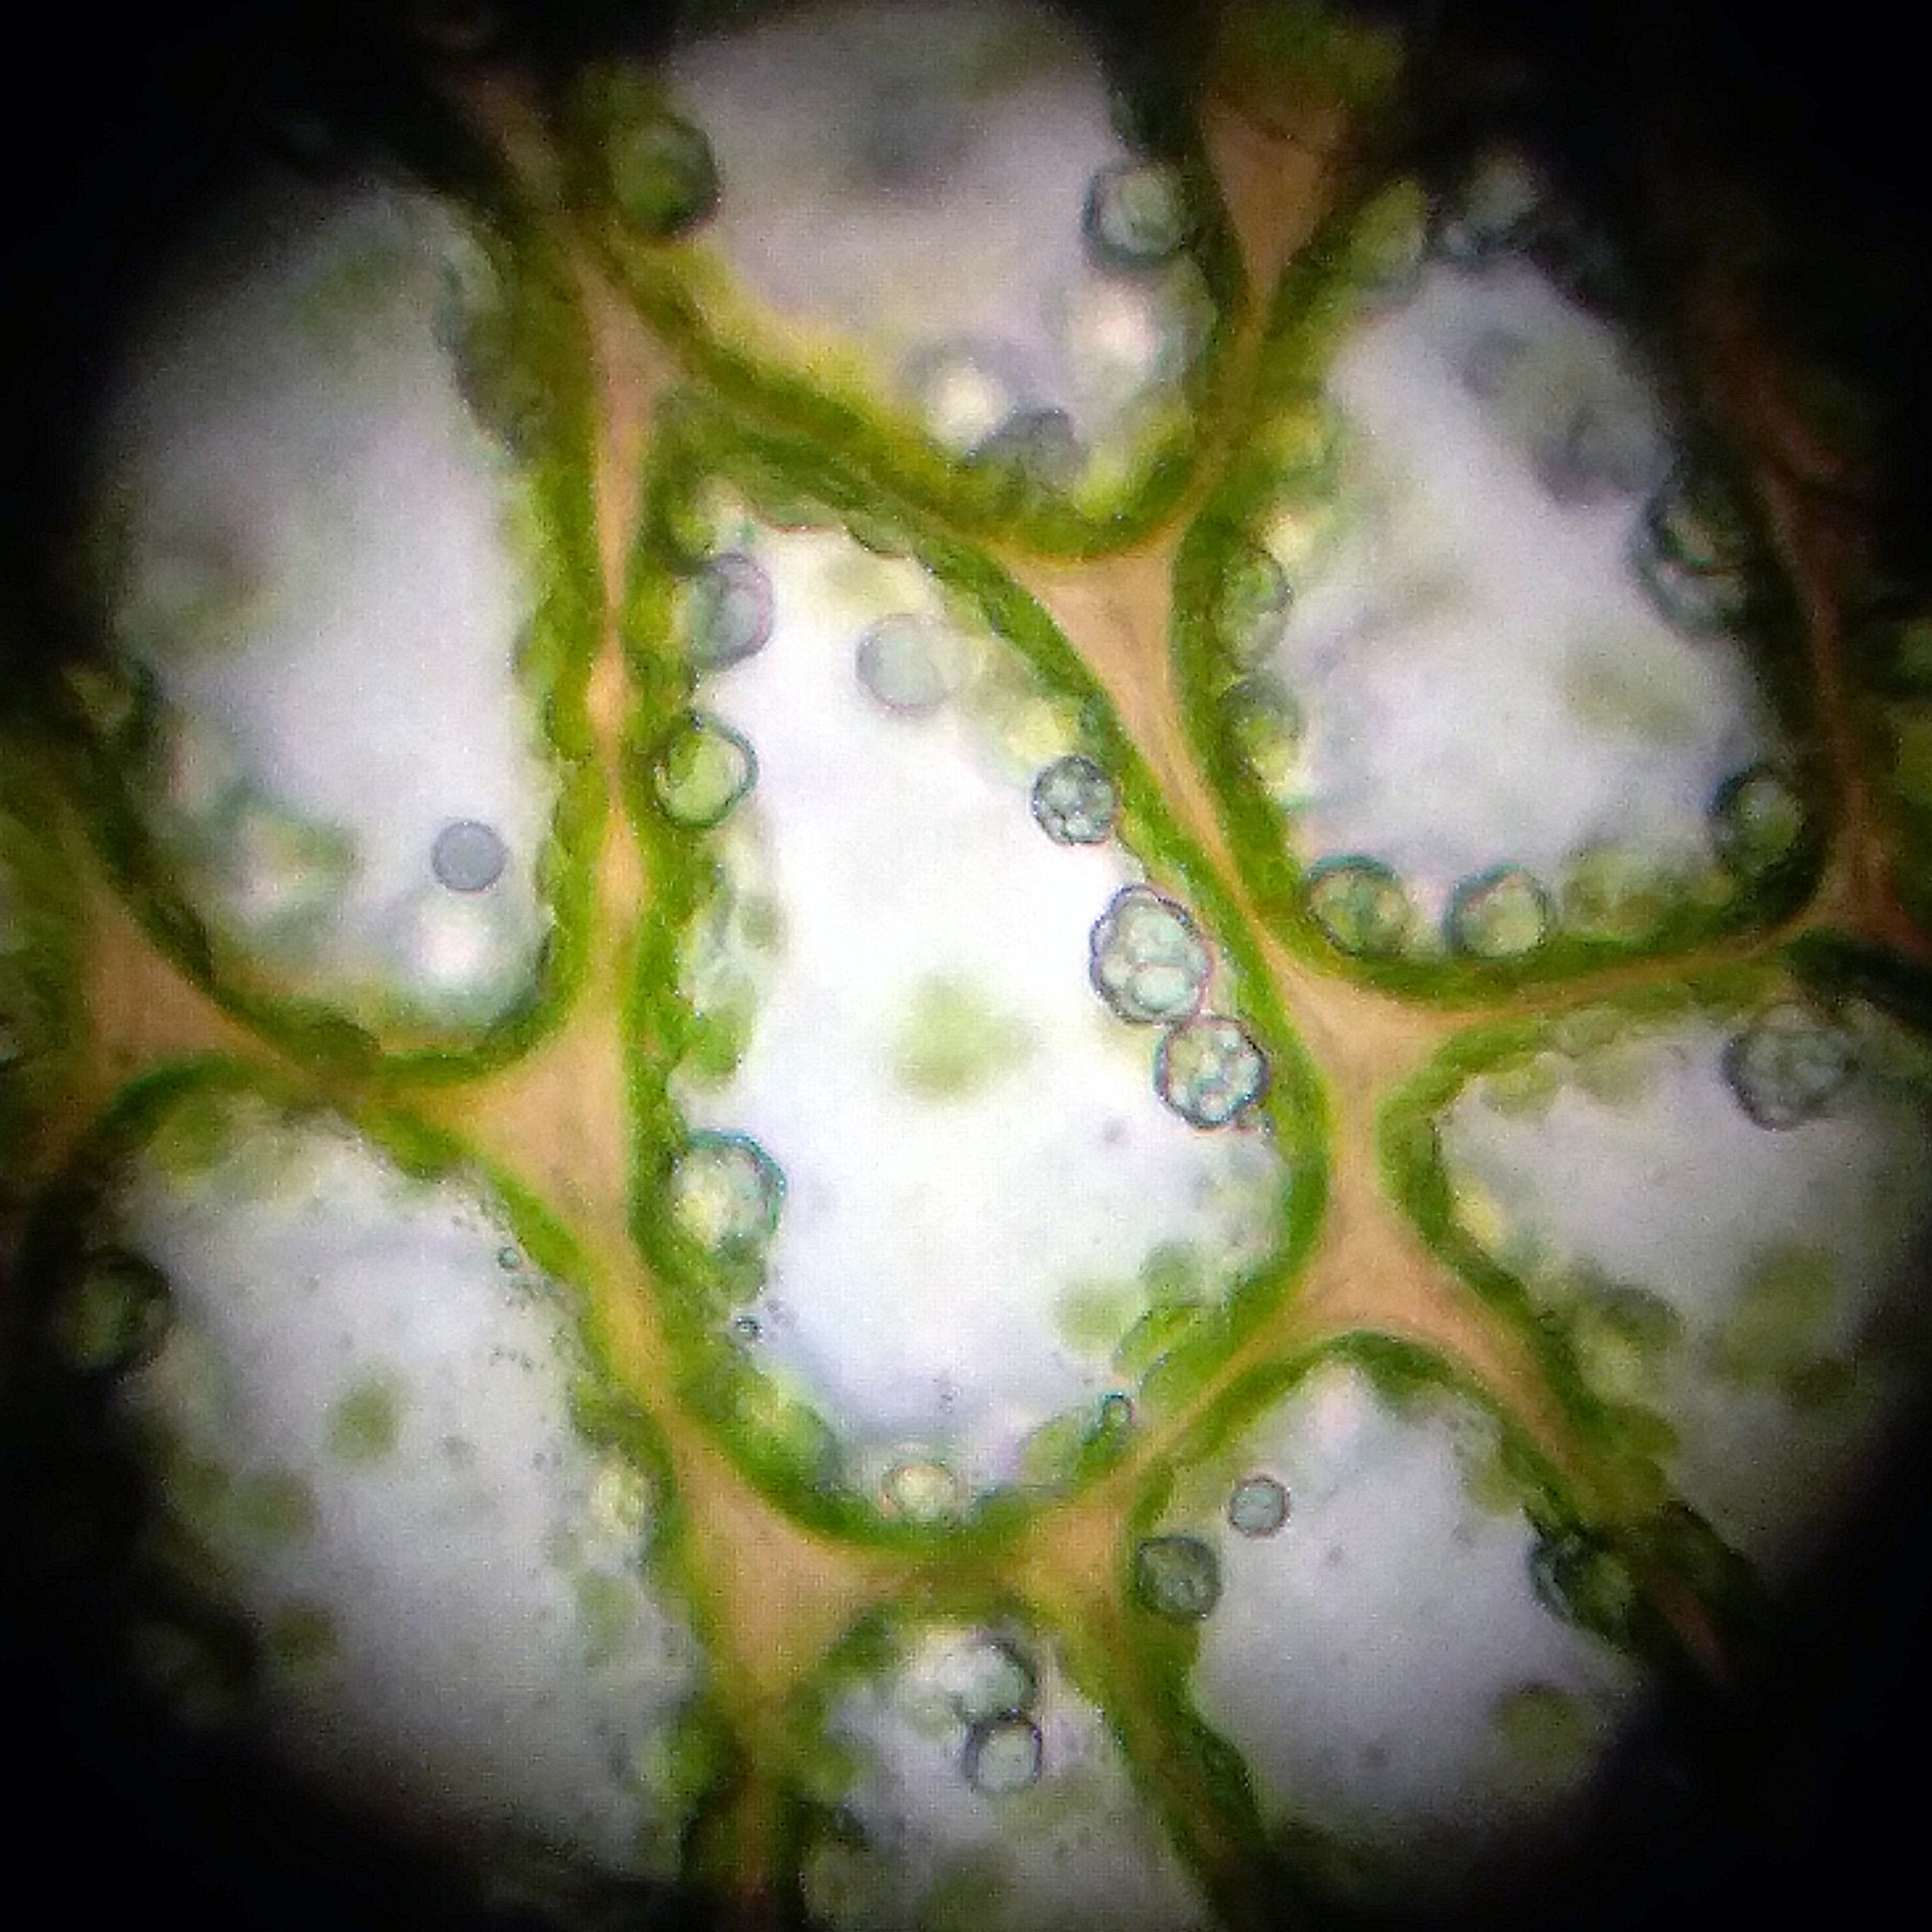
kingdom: Plantae
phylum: Marchantiophyta
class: Jungermanniopsida
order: Jungermanniales
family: Myliaceae
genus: Mylia
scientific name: Mylia anomala
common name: Mose-fladmund
